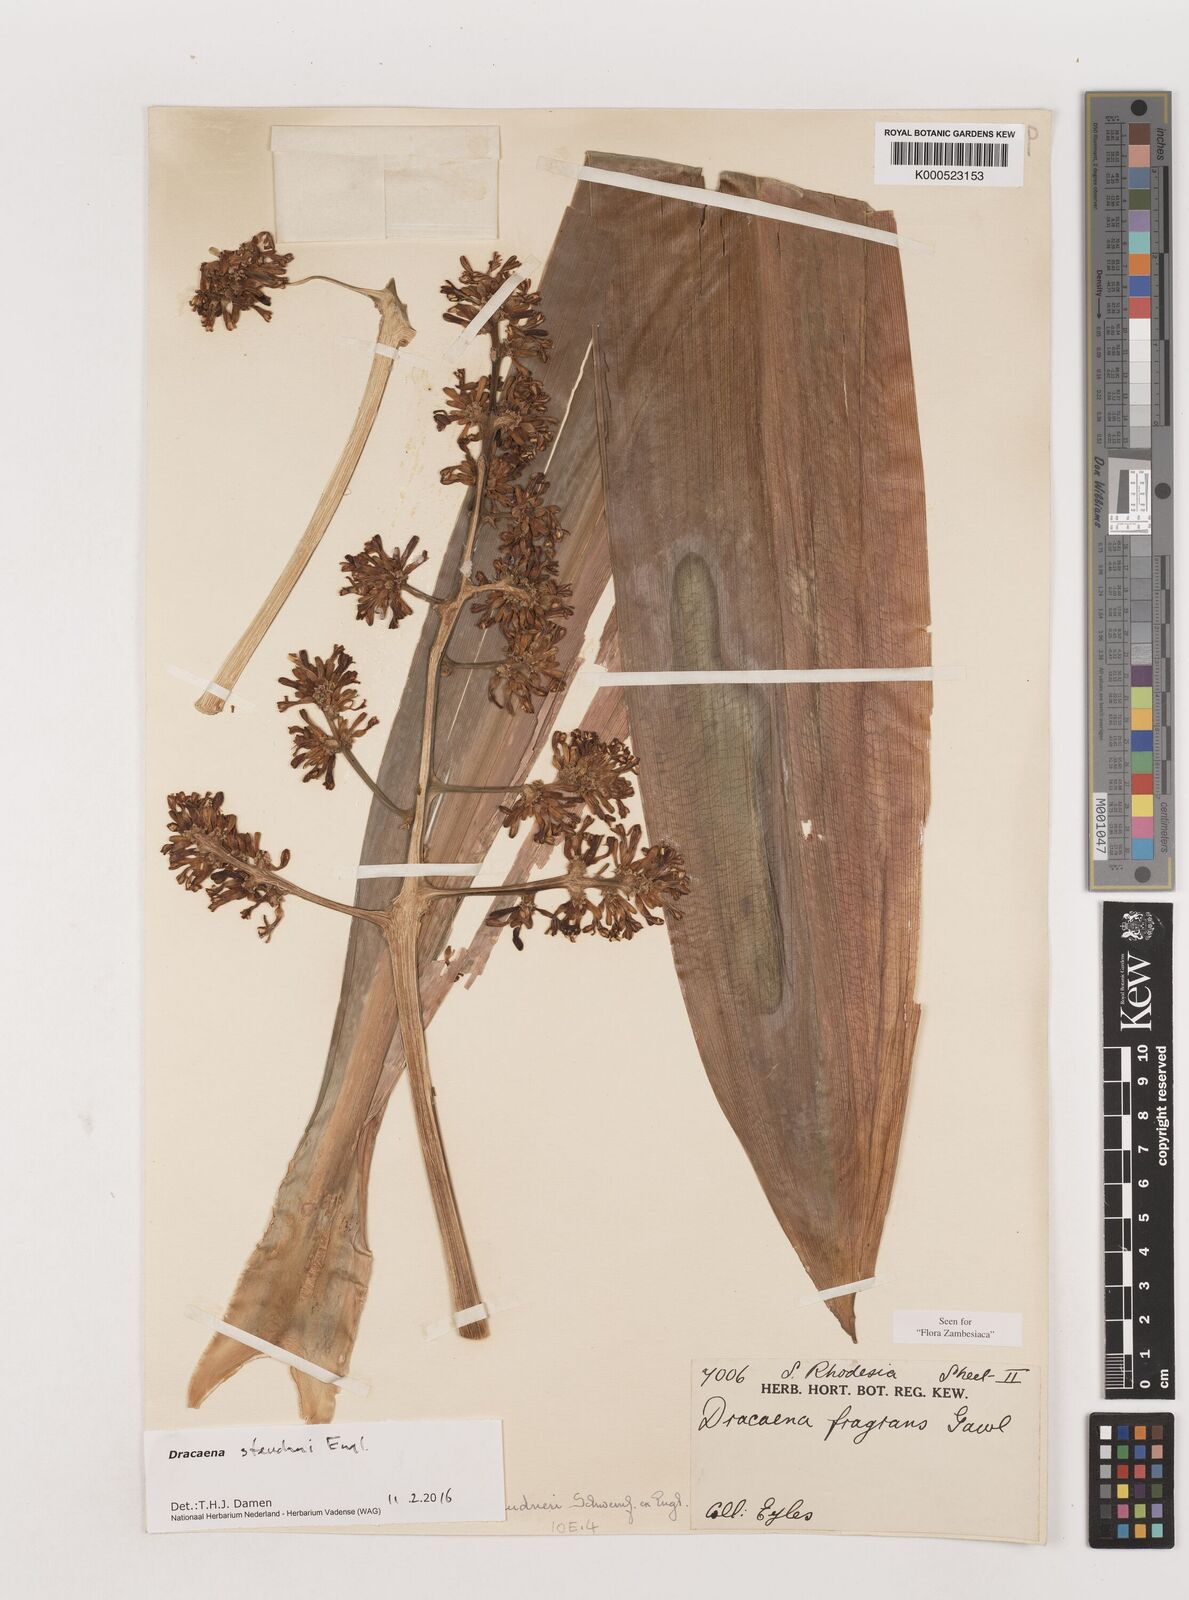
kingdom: Plantae
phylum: Tracheophyta
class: Liliopsida
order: Asparagales
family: Asparagaceae
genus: Dracaena
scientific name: Dracaena steudneri
